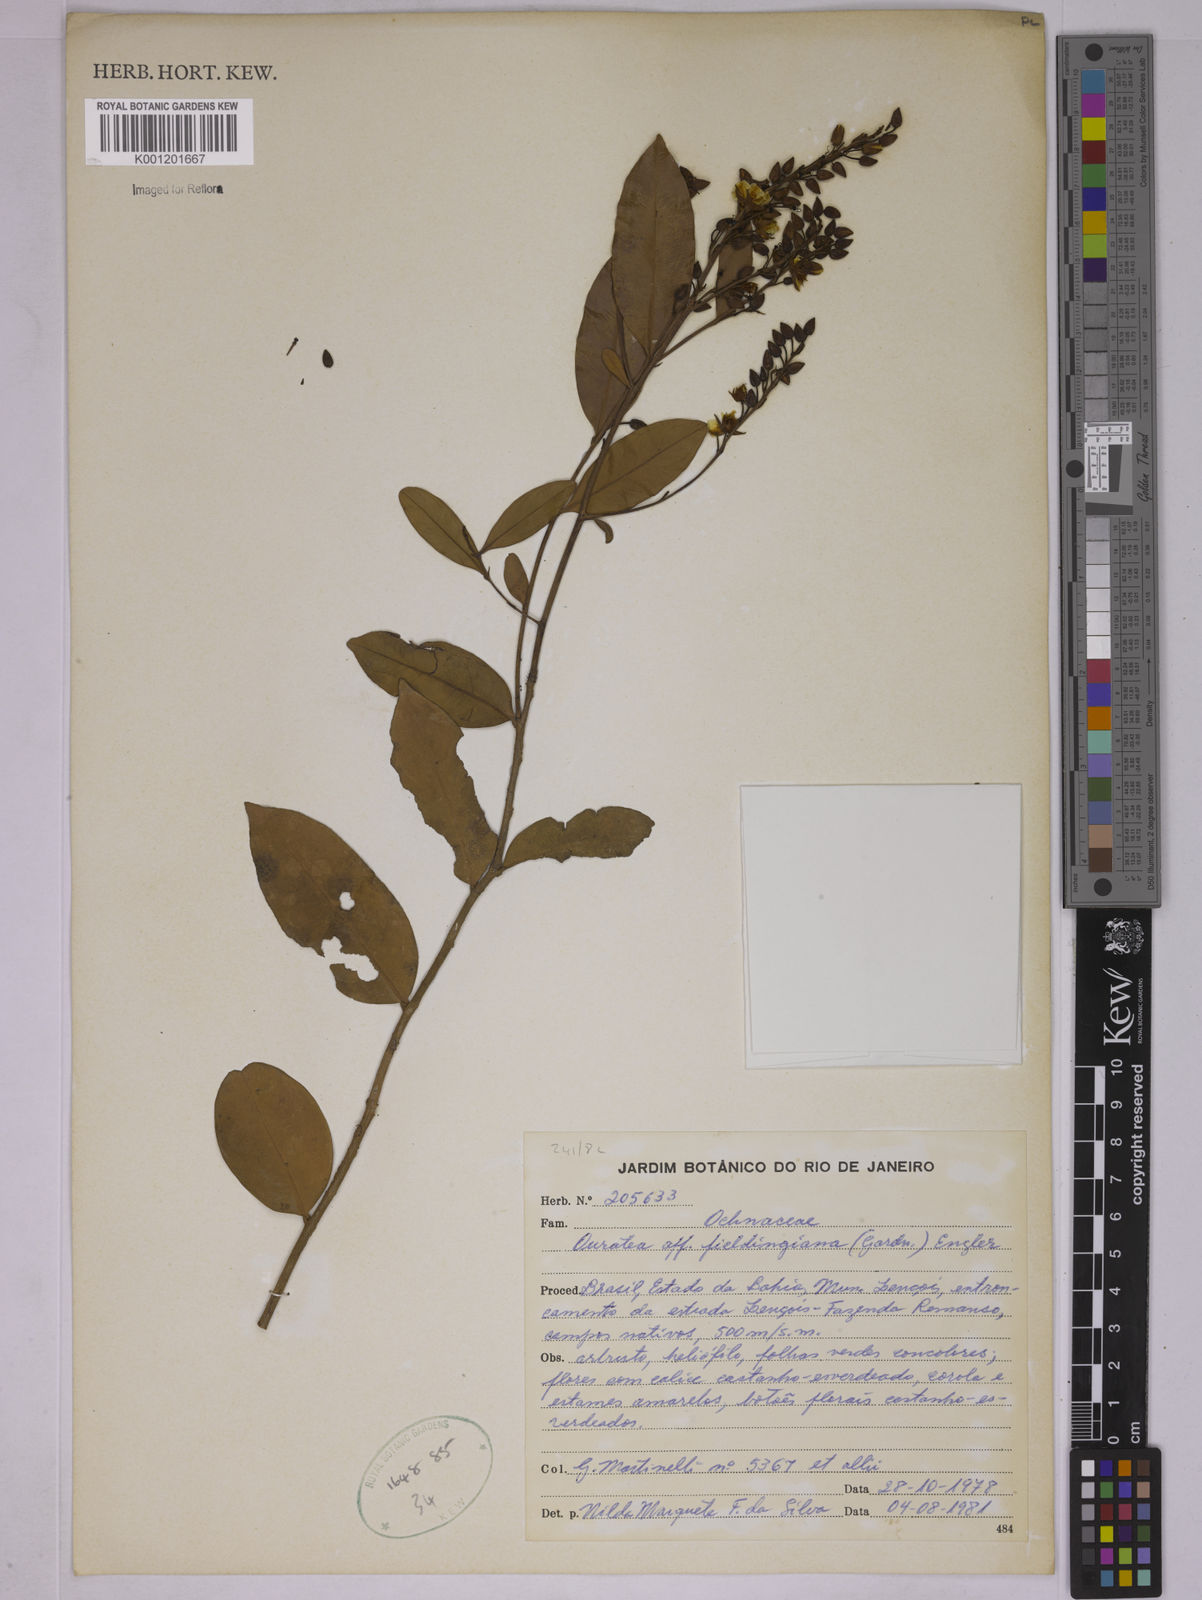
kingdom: Plantae
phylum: Tracheophyta
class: Magnoliopsida
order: Malpighiales
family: Ochnaceae
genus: Ouratea
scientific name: Ouratea fieldingiana
